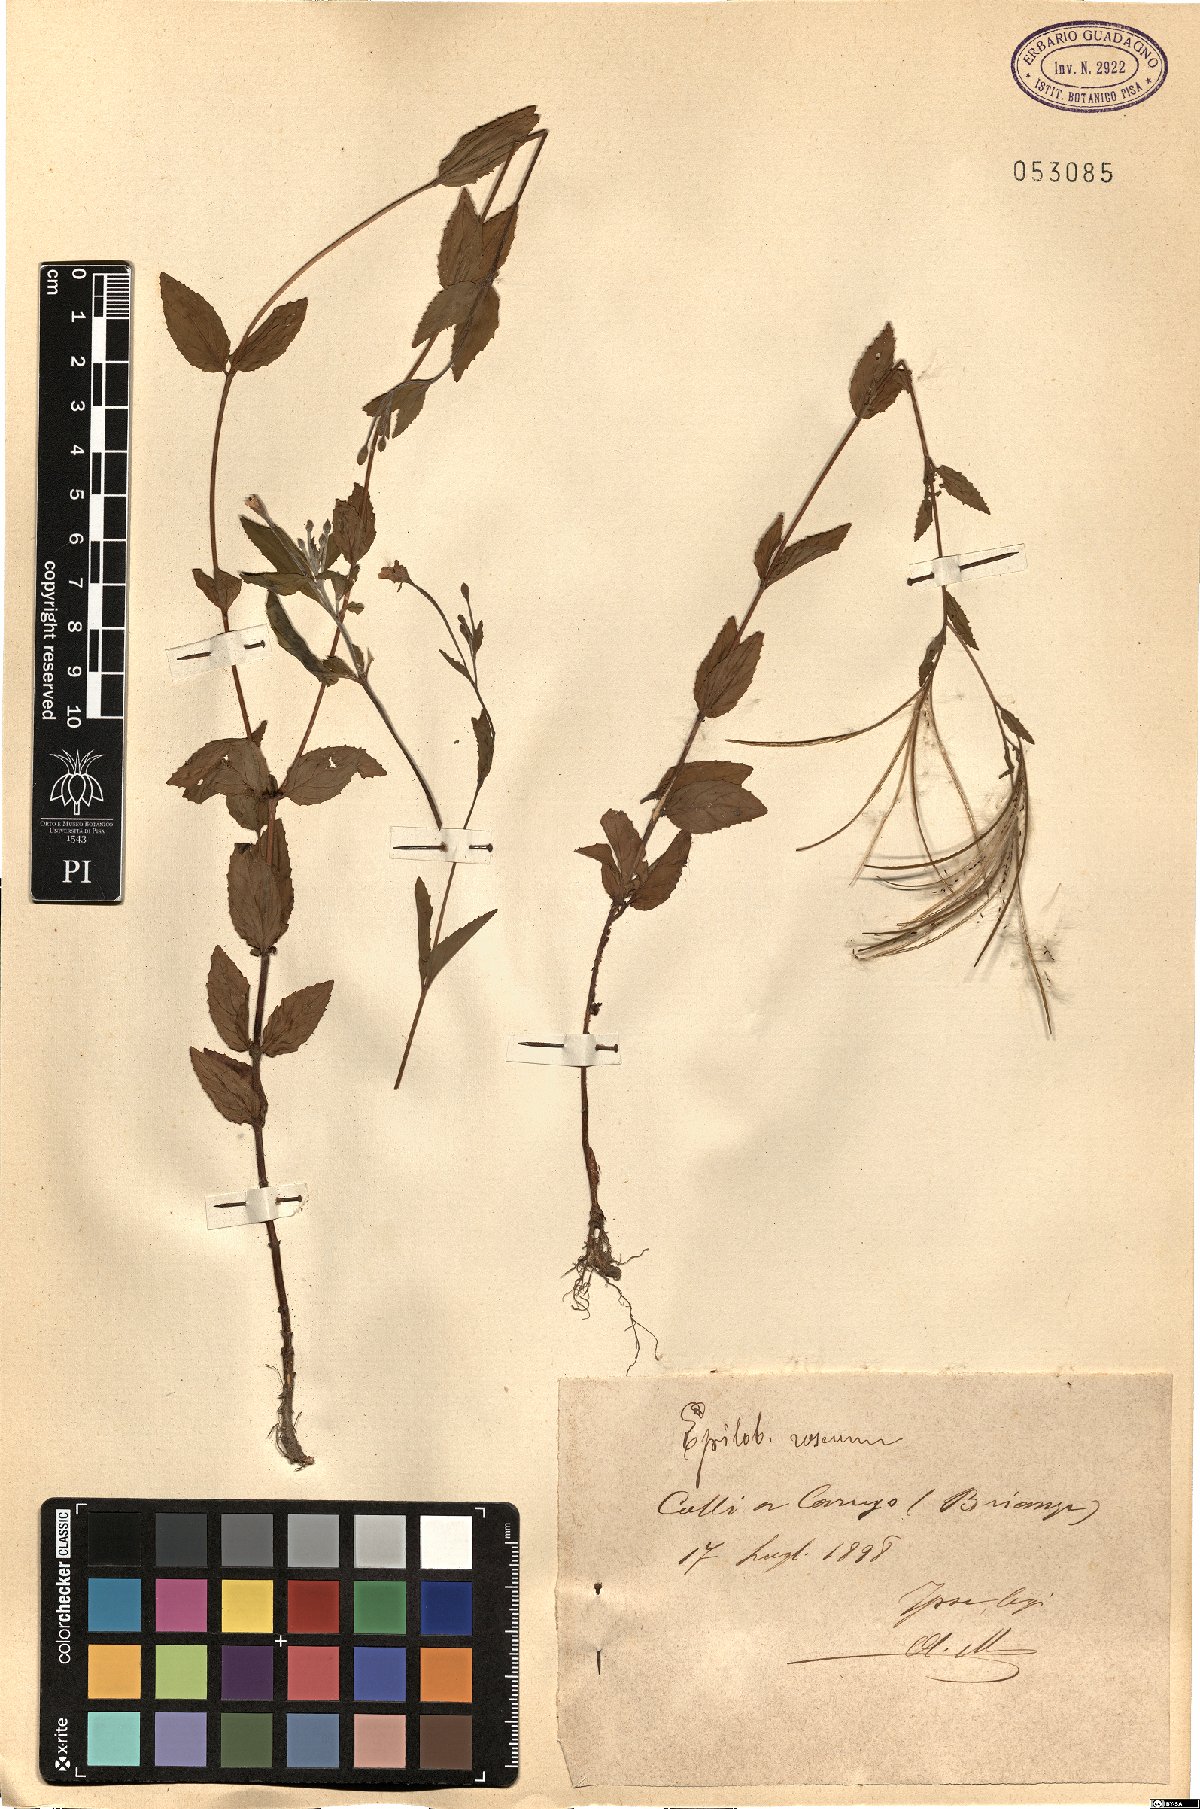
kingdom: Plantae
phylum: Tracheophyta
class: Magnoliopsida
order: Myrtales
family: Onagraceae
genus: Epilobium
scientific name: Epilobium roseum
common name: Pale willowherb
